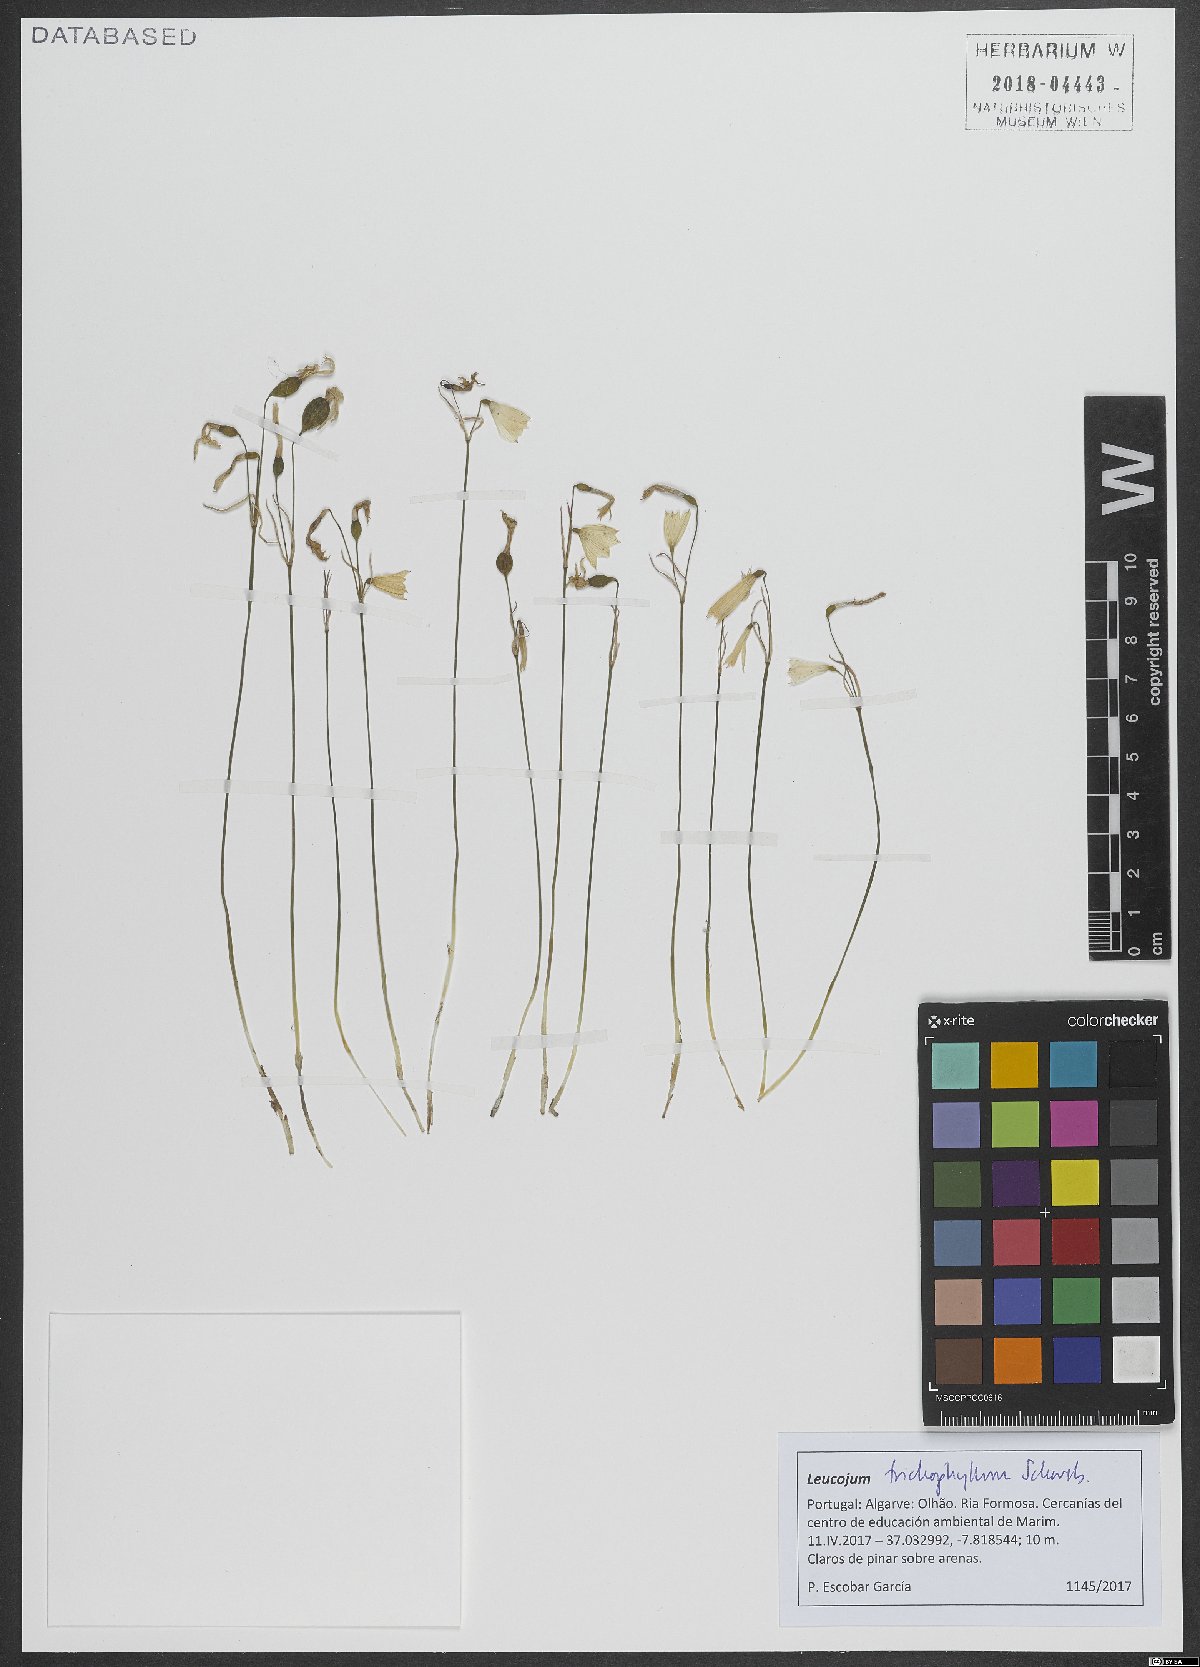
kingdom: Plantae
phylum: Tracheophyta
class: Liliopsida
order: Asparagales
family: Amaryllidaceae
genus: Acis
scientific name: Acis trichophylla
